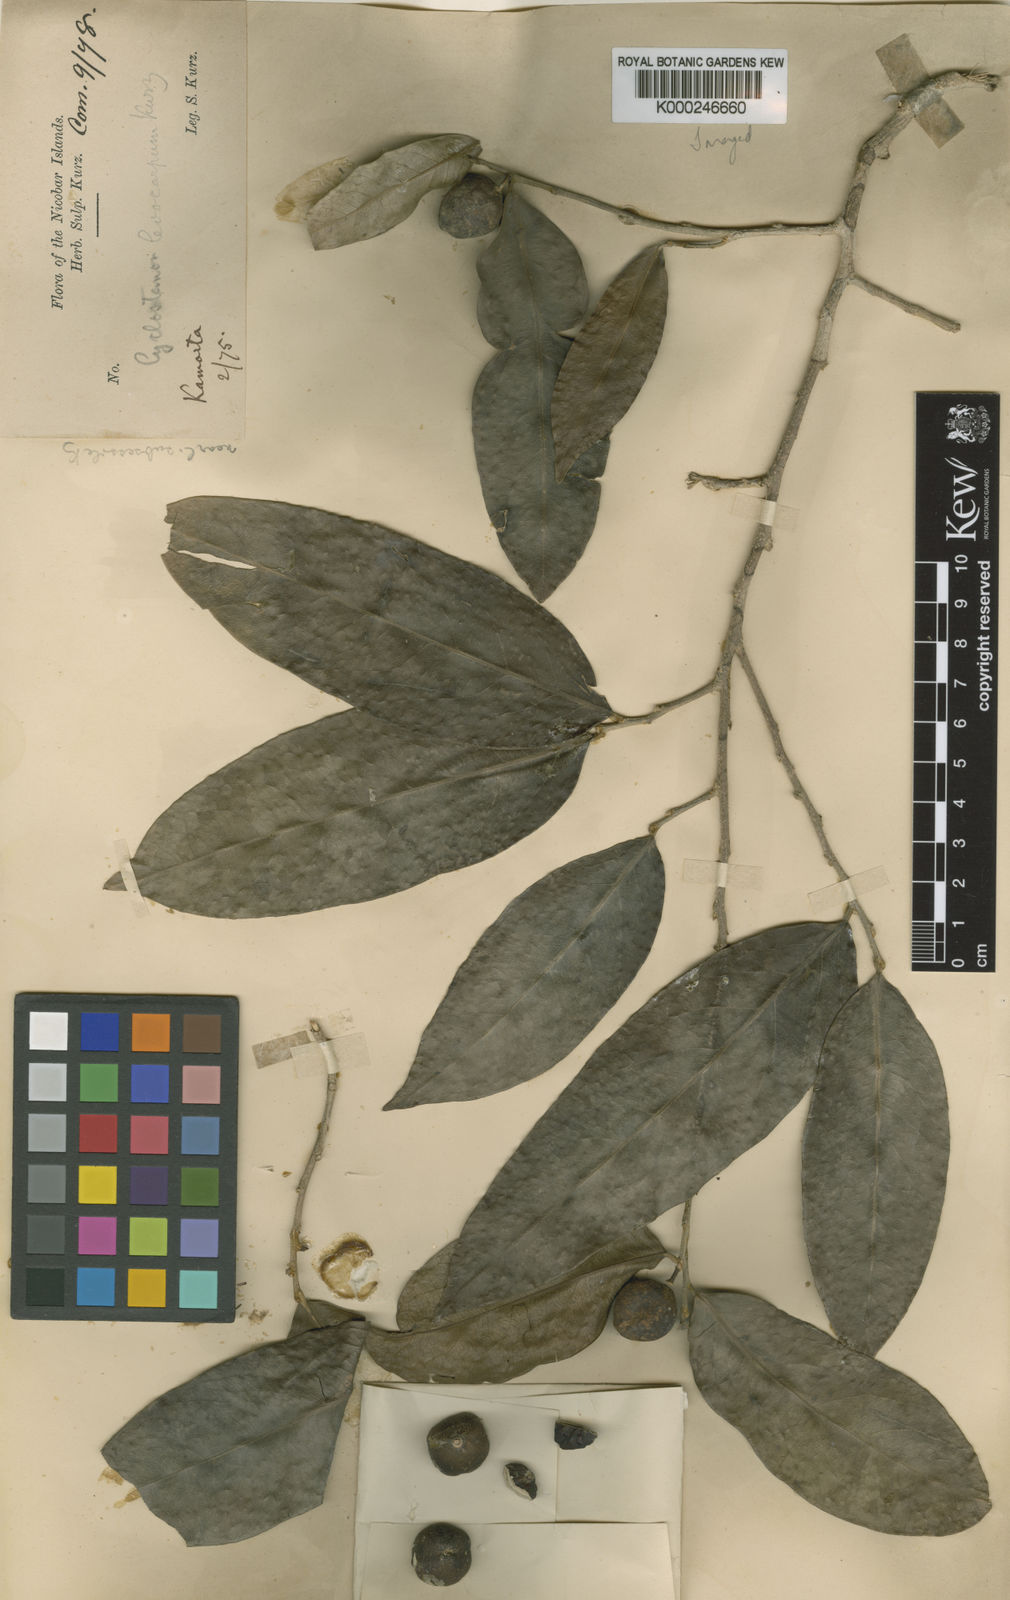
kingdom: Plantae
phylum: Tracheophyta
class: Magnoliopsida
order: Malpighiales
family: Putranjivaceae
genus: Drypetes
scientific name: Drypetes leiocarpa
